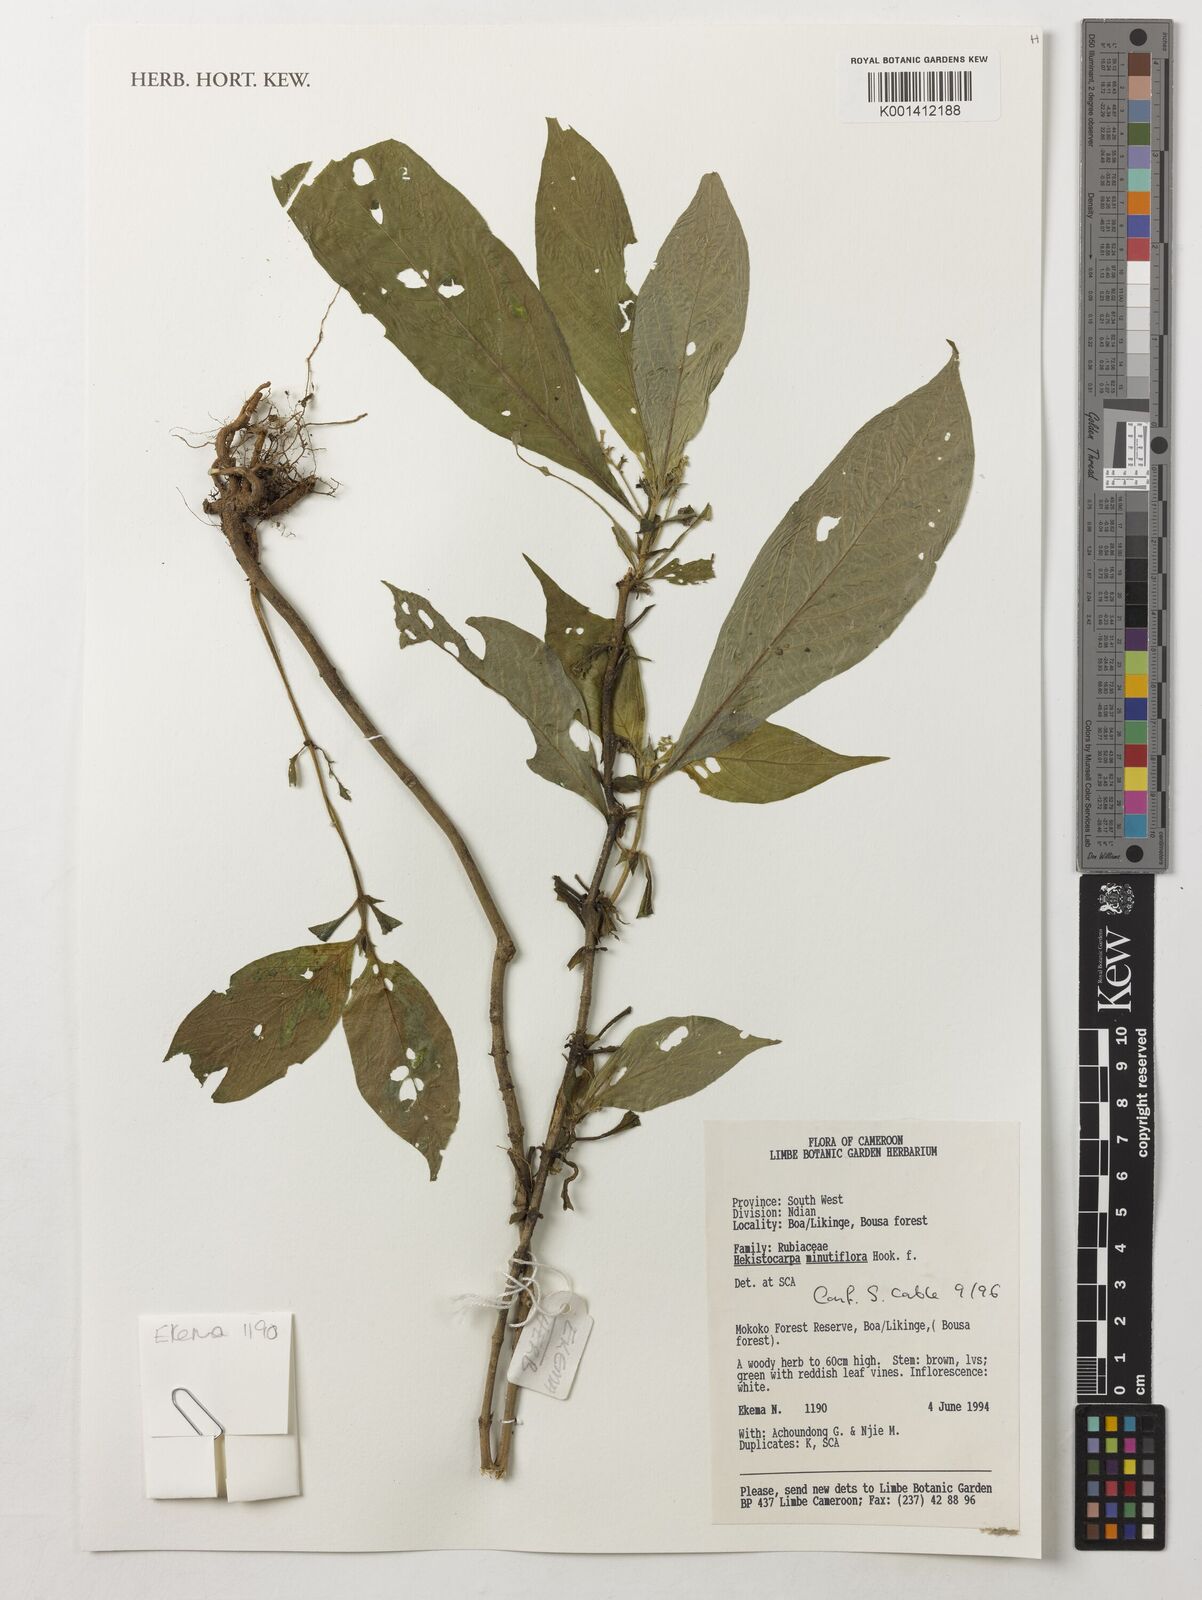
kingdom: Plantae
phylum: Tracheophyta
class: Magnoliopsida
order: Gentianales
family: Rubiaceae
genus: Hekistocarpa
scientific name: Hekistocarpa minutiflora
